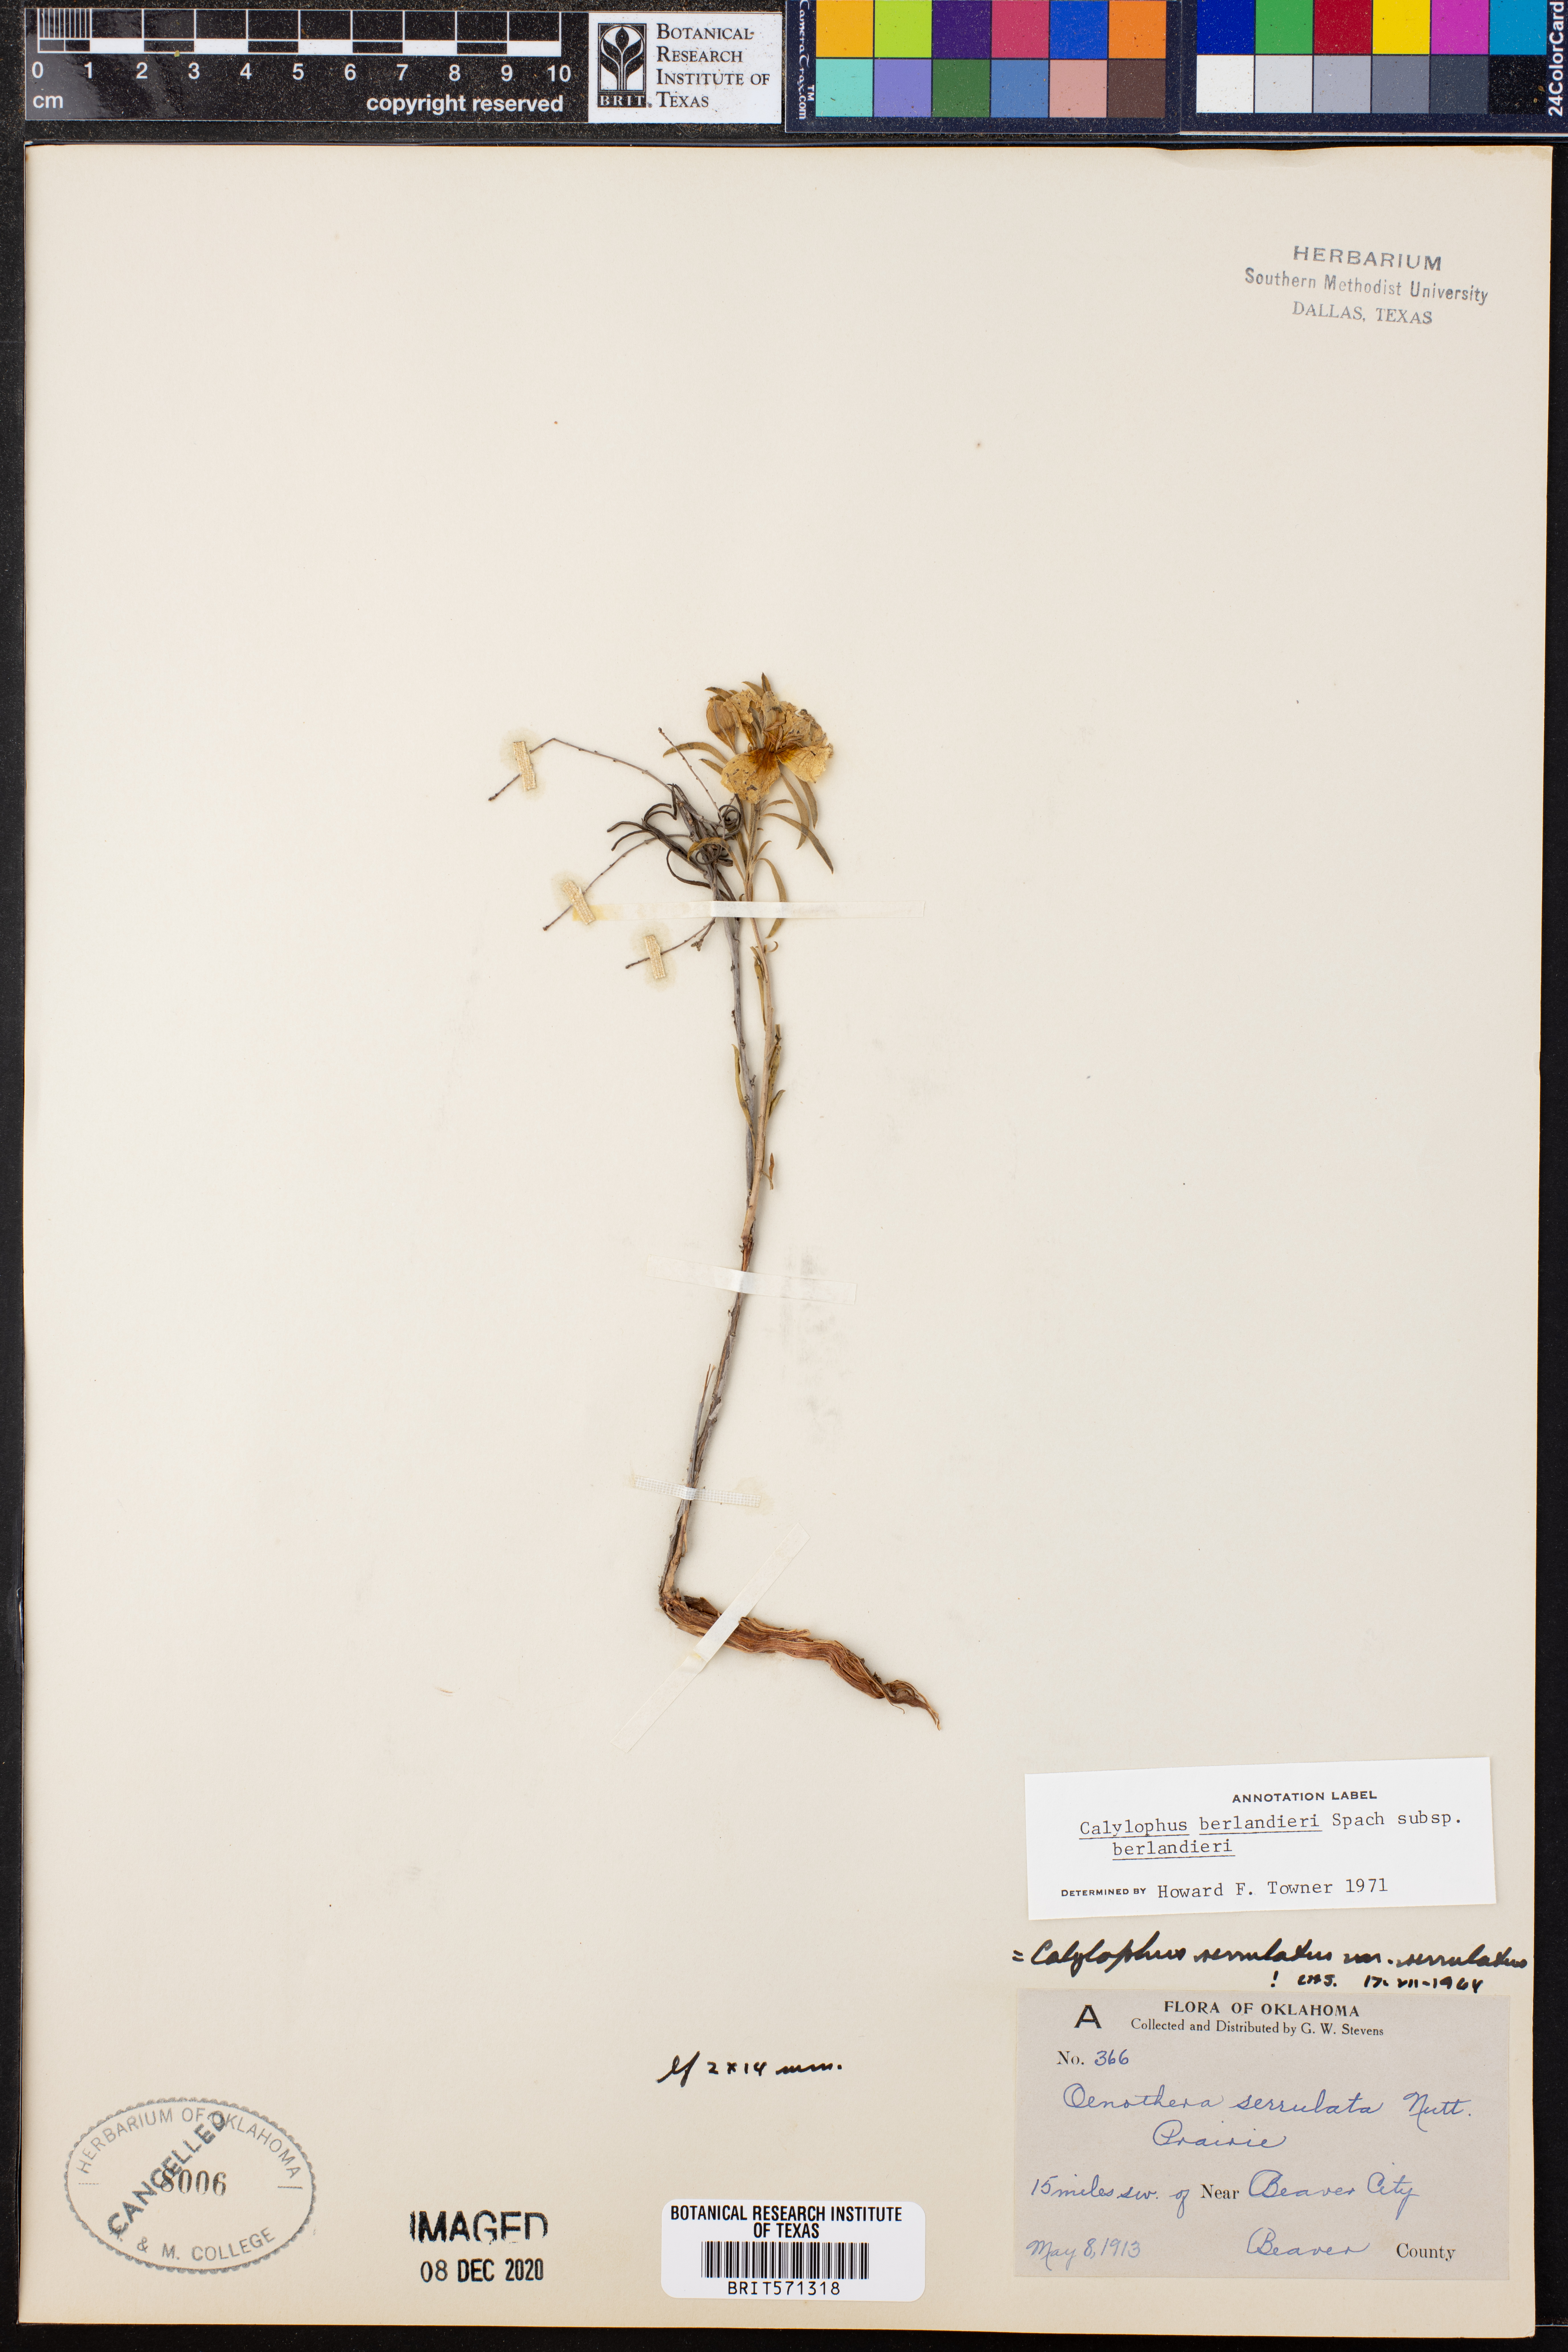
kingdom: Plantae
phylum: Tracheophyta
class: Magnoliopsida
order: Myrtales
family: Onagraceae
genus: Oenothera
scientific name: Oenothera capillifolia
